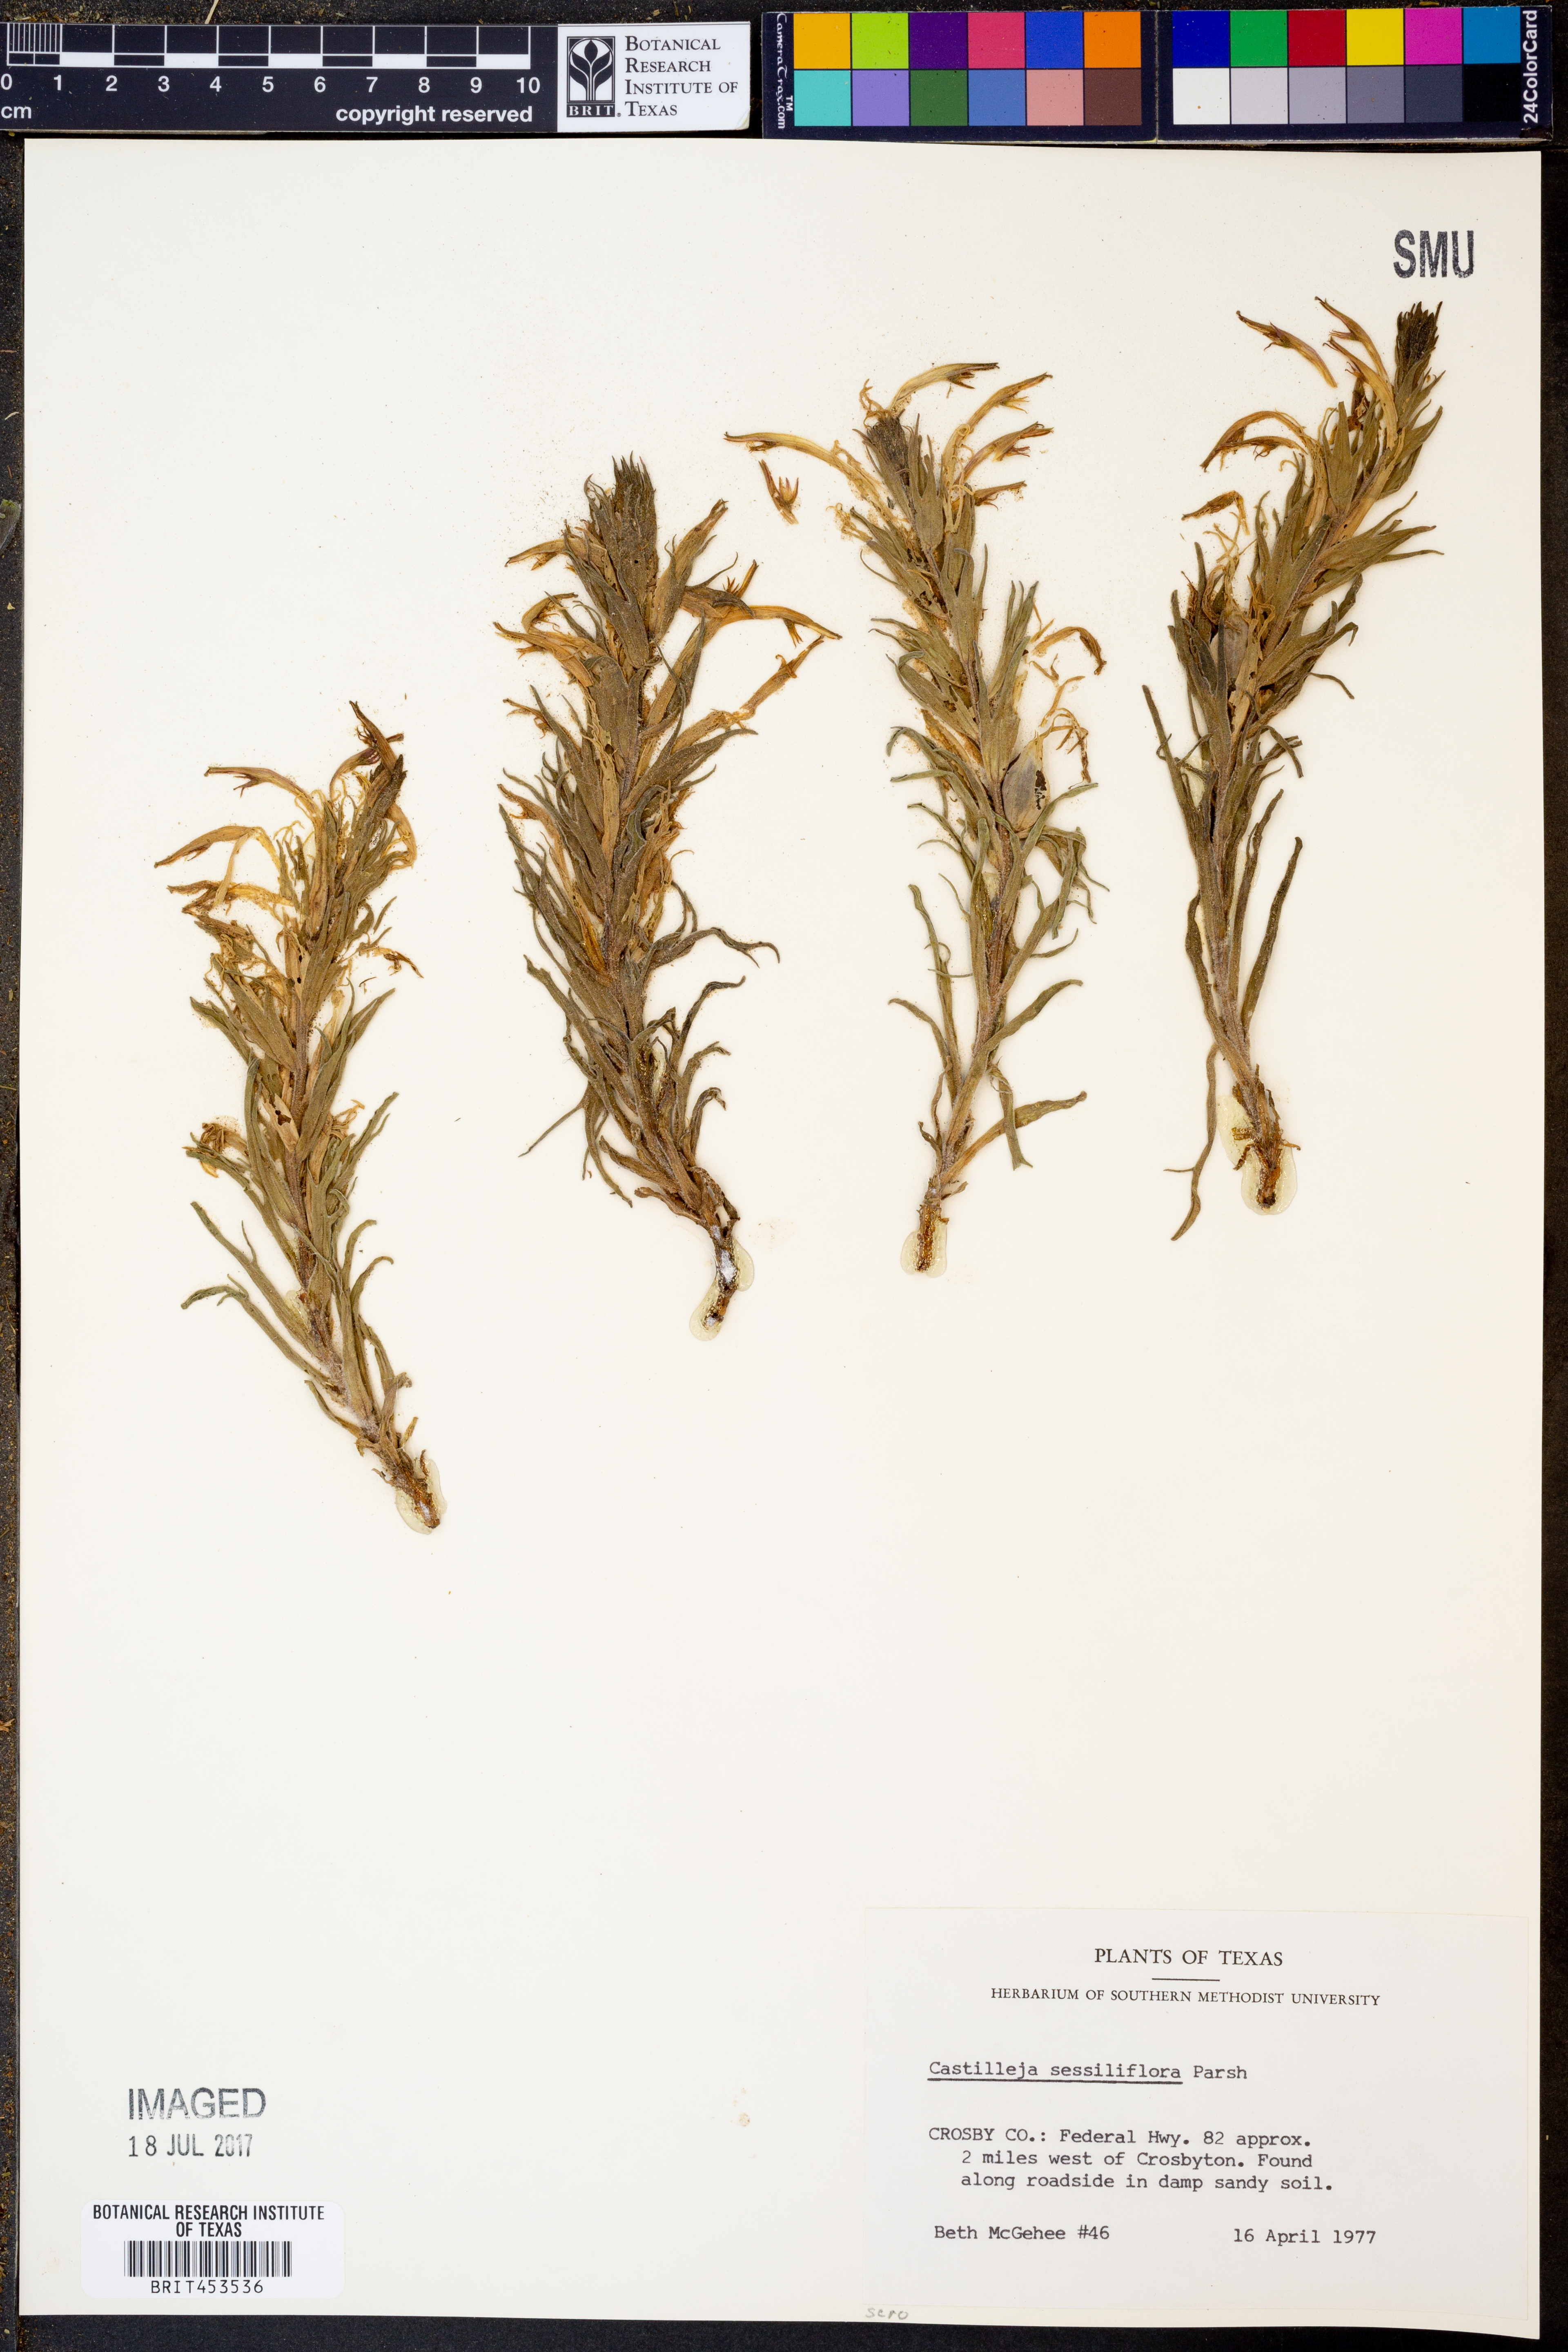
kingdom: Plantae
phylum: Tracheophyta
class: Magnoliopsida
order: Lamiales
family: Orobanchaceae
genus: Castilleja
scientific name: Castilleja sessiliflora
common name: Downy paintbrush
